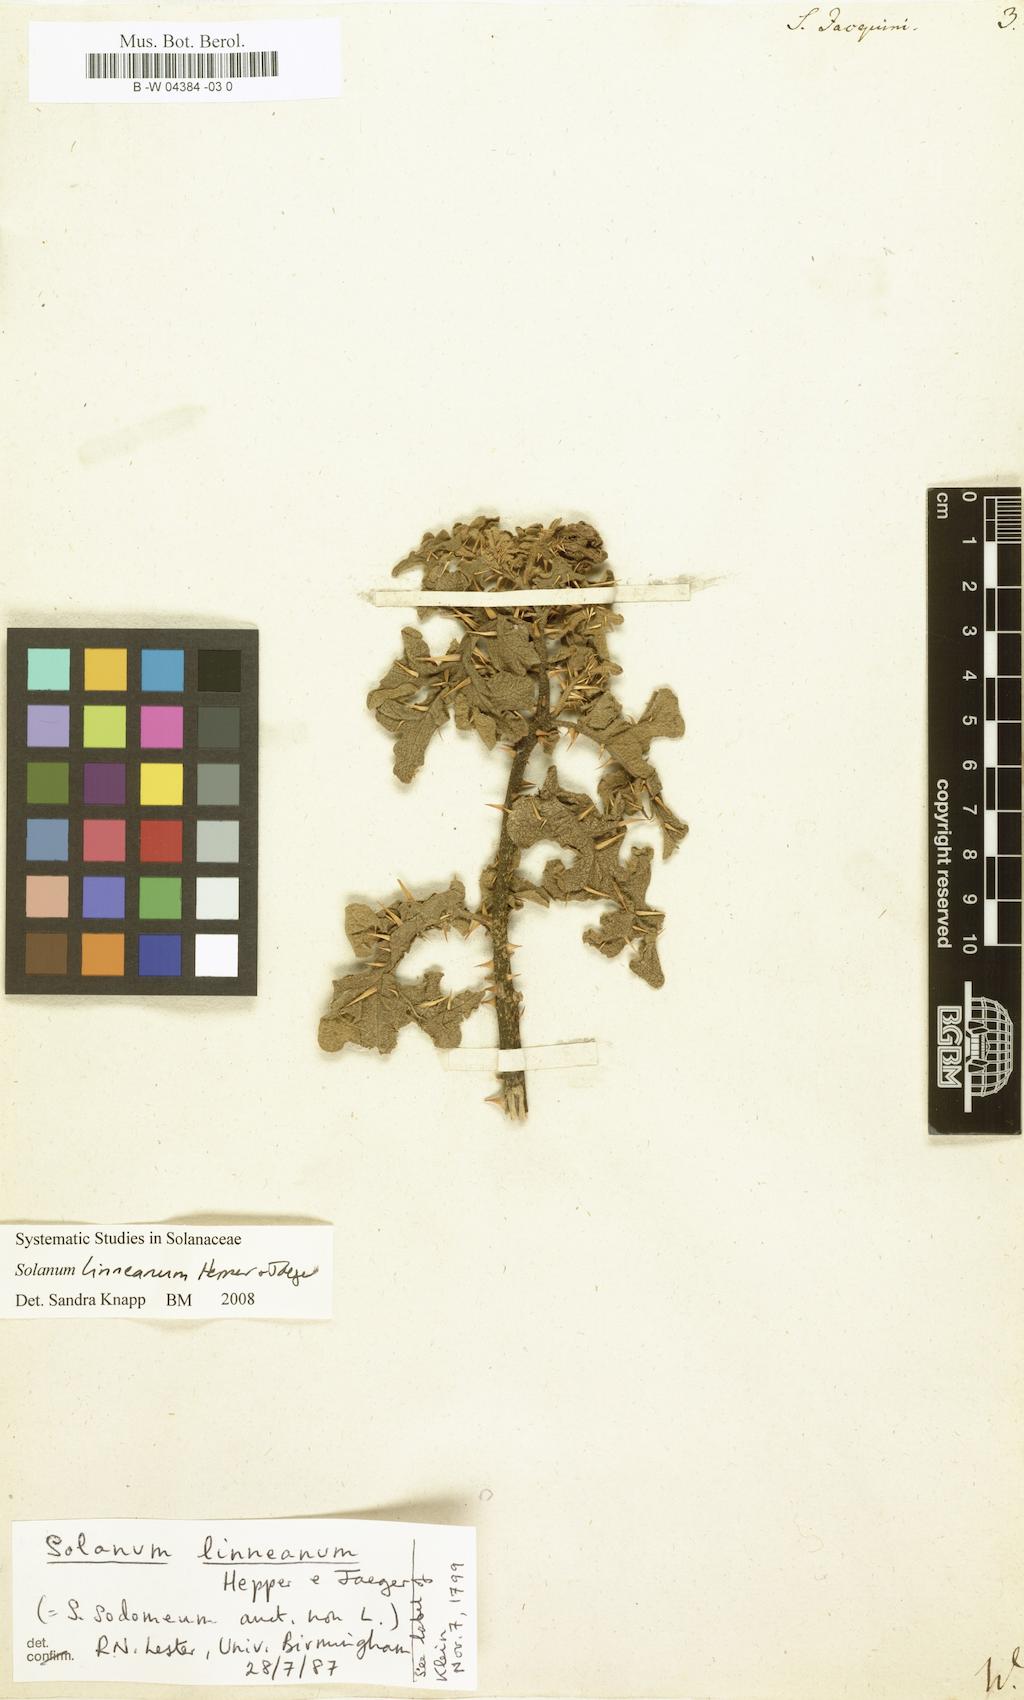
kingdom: Plantae
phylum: Tracheophyta
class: Magnoliopsida
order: Solanales
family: Solanaceae
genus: Solanum
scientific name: Solanum virginianum
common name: Surattense nightshade
